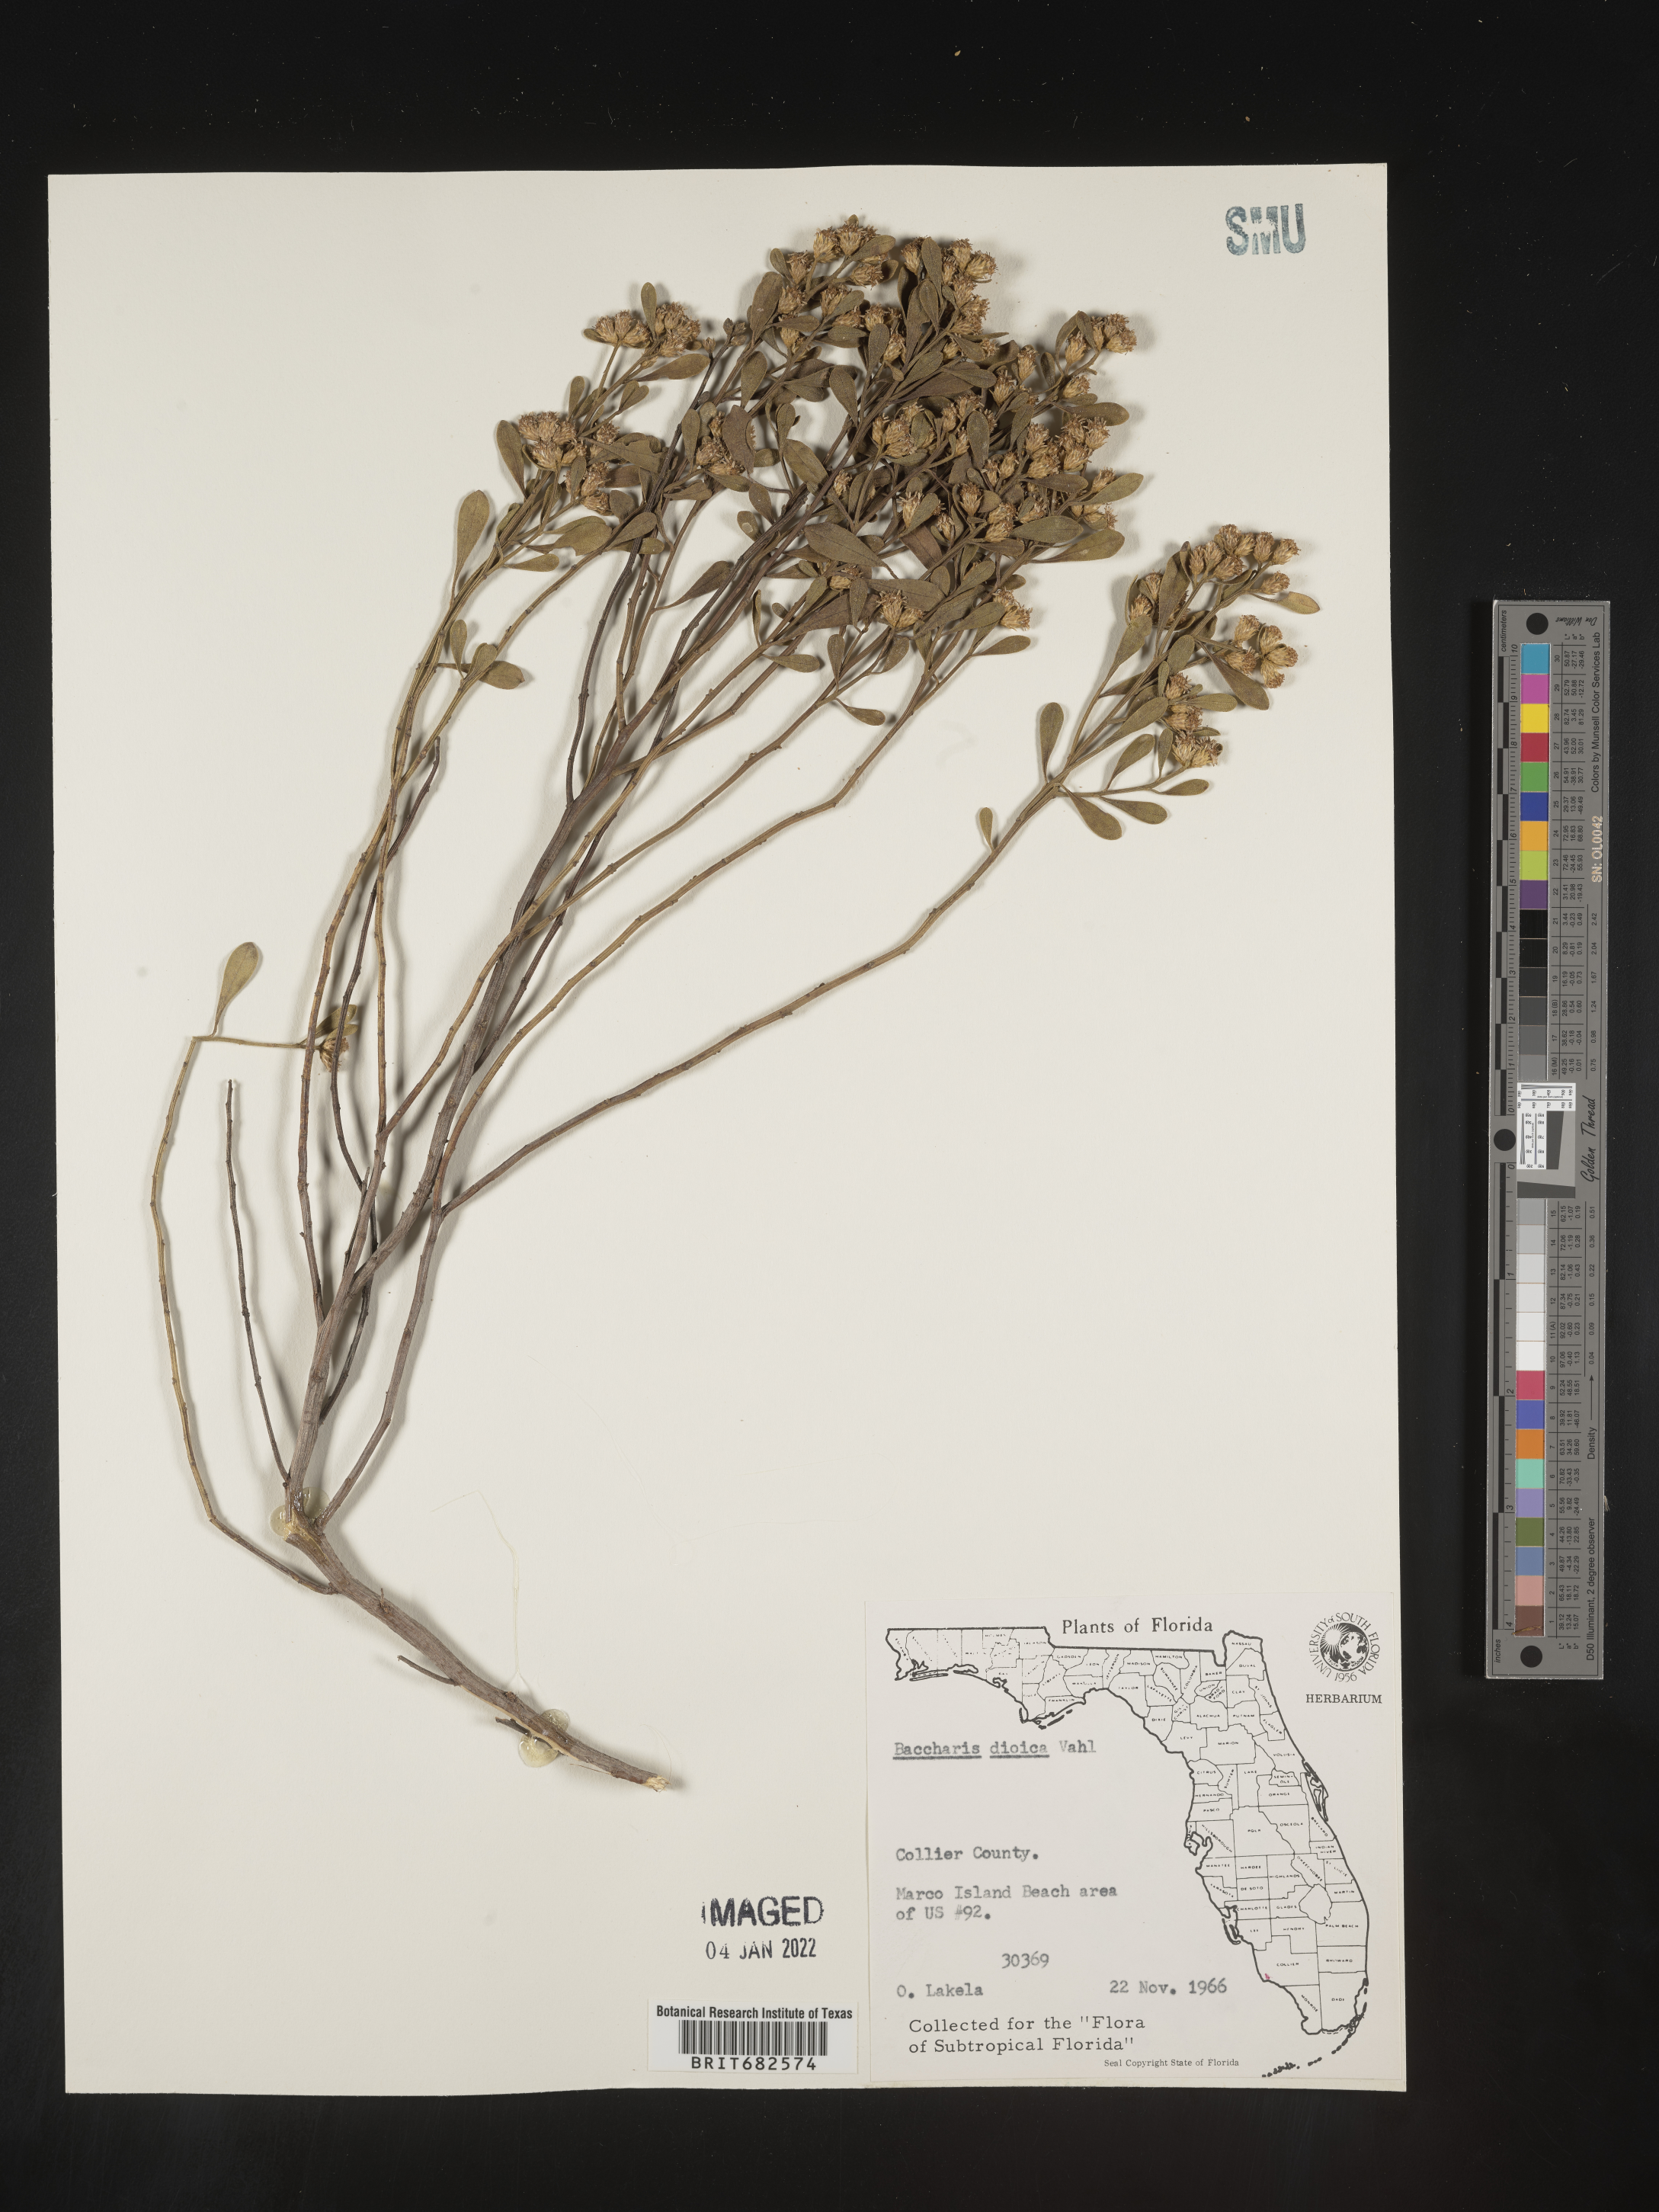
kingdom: Plantae
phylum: Tracheophyta
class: Magnoliopsida
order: Asterales
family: Asteraceae
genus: Baccharis
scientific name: Baccharis dioica
